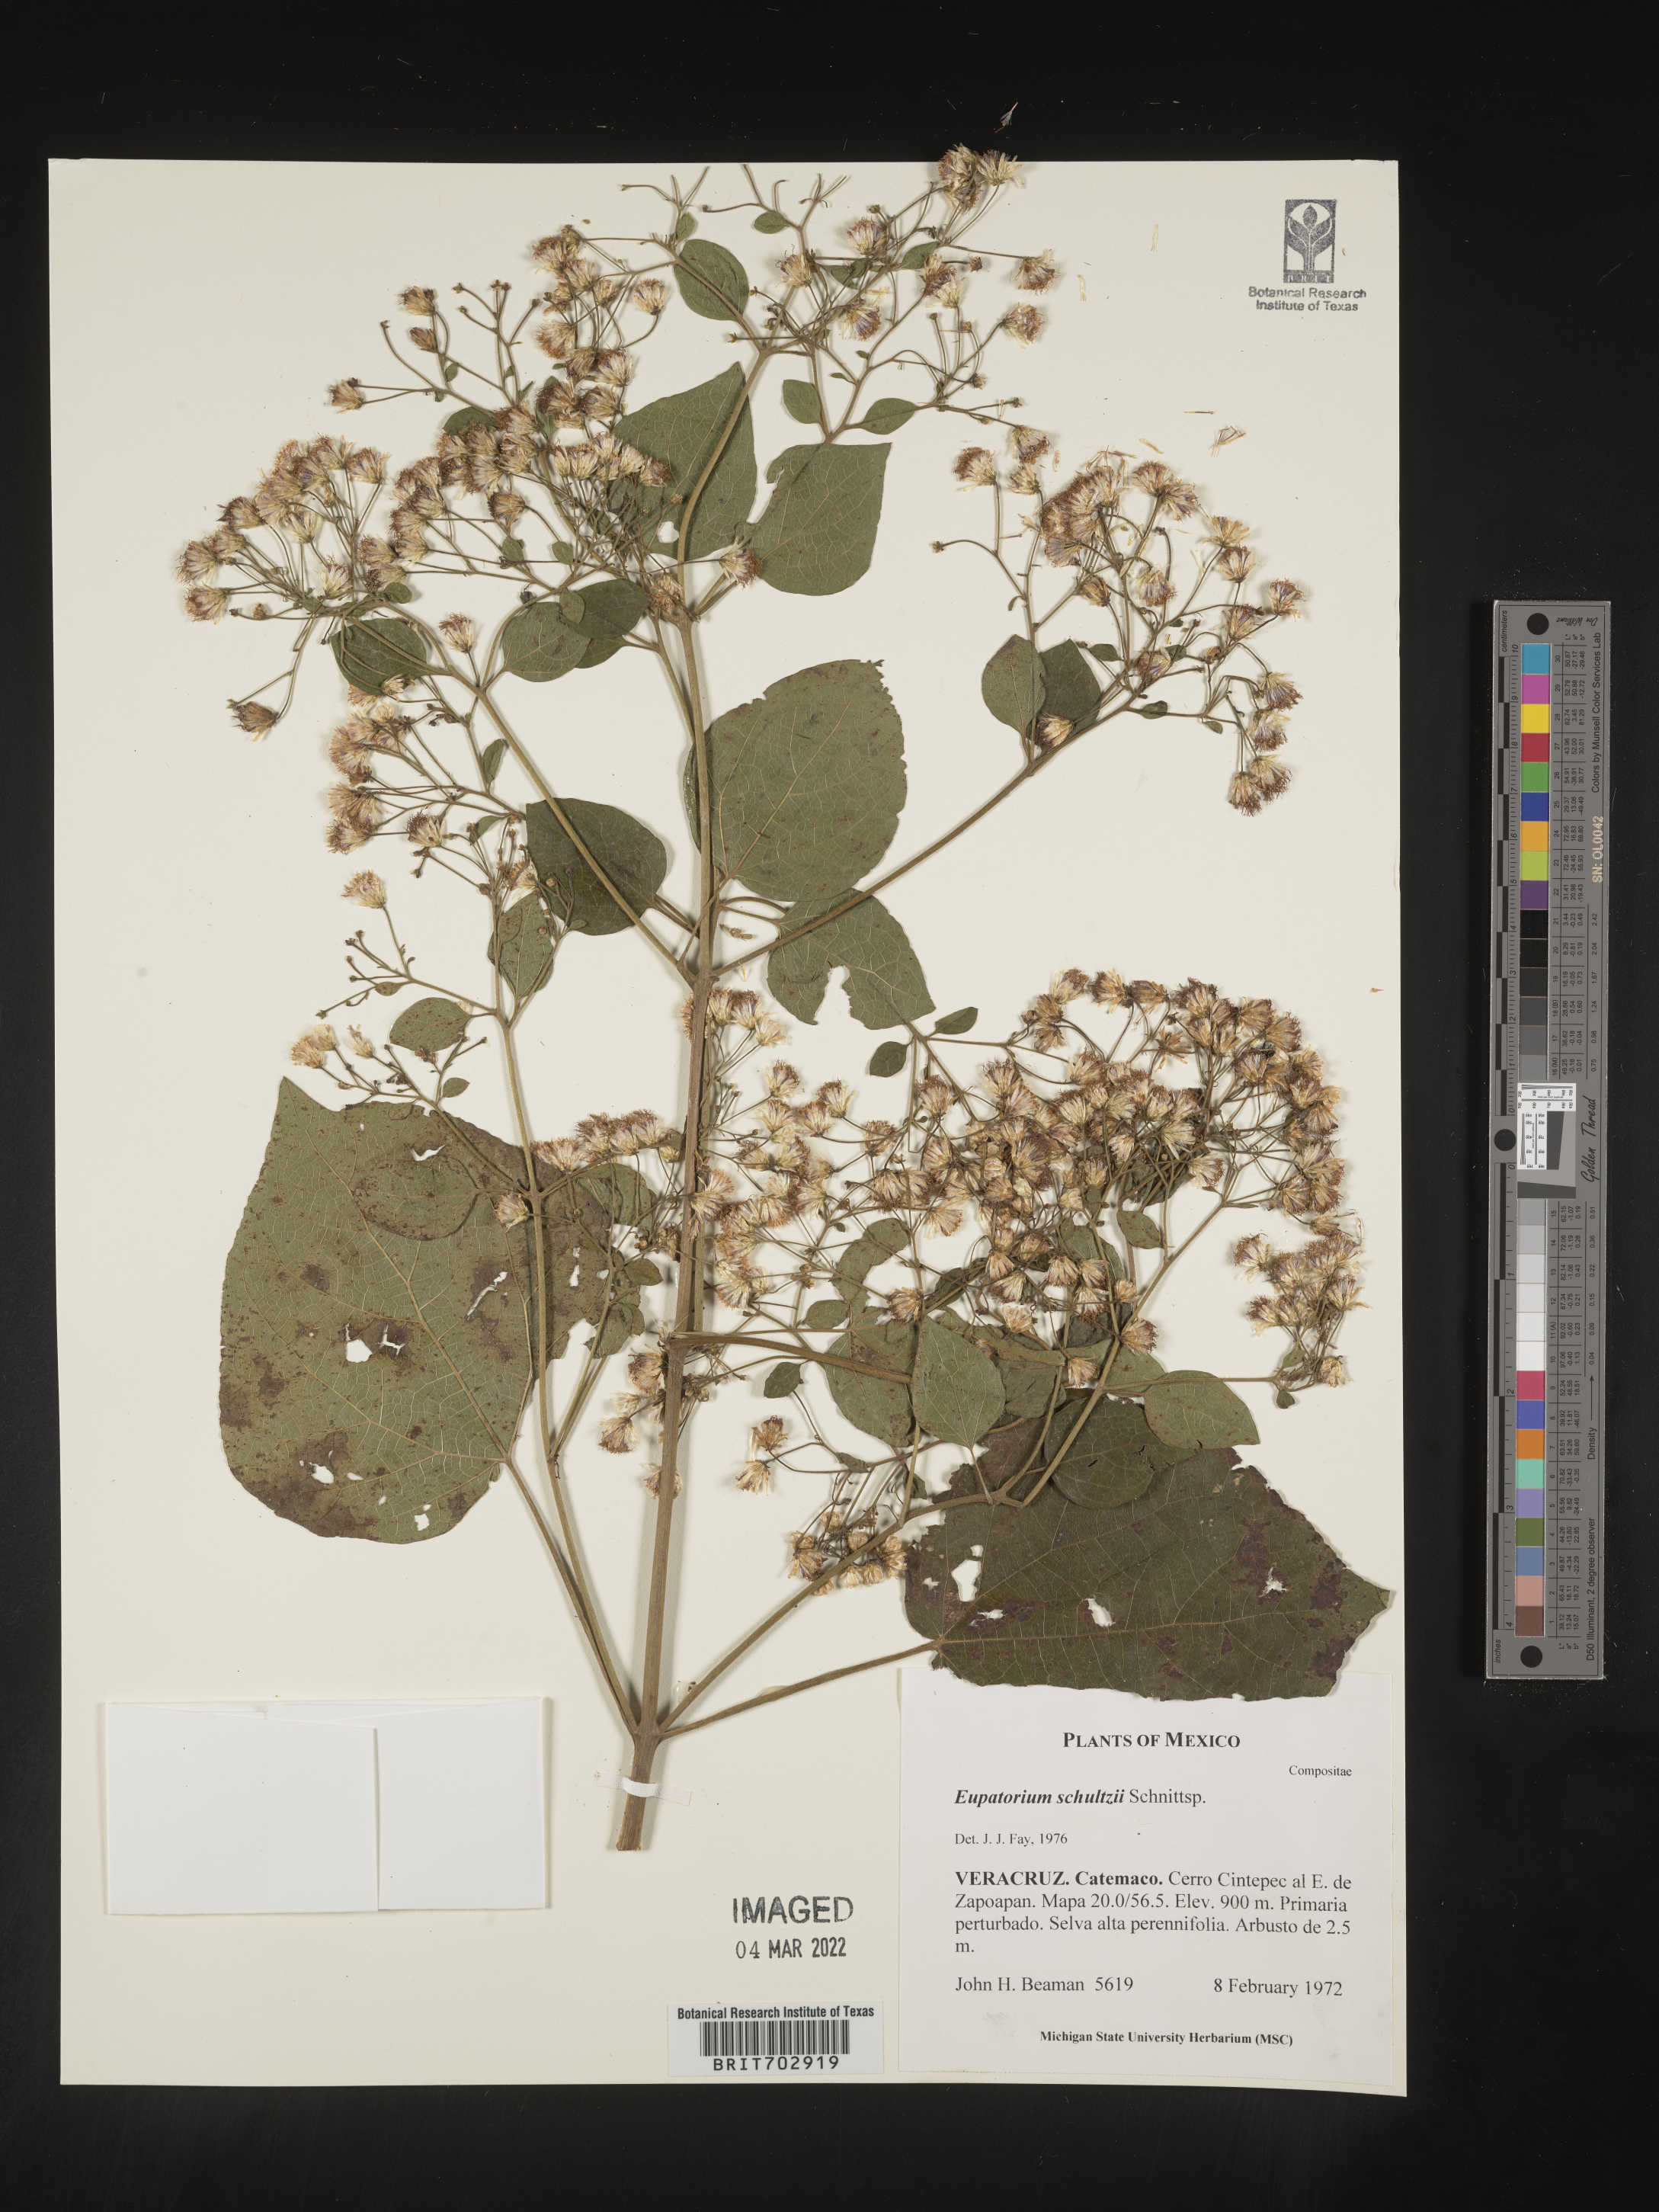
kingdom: Plantae
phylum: Tracheophyta
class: Magnoliopsida
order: Asterales
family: Asteraceae
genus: Eupatorium
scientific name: Eupatorium
